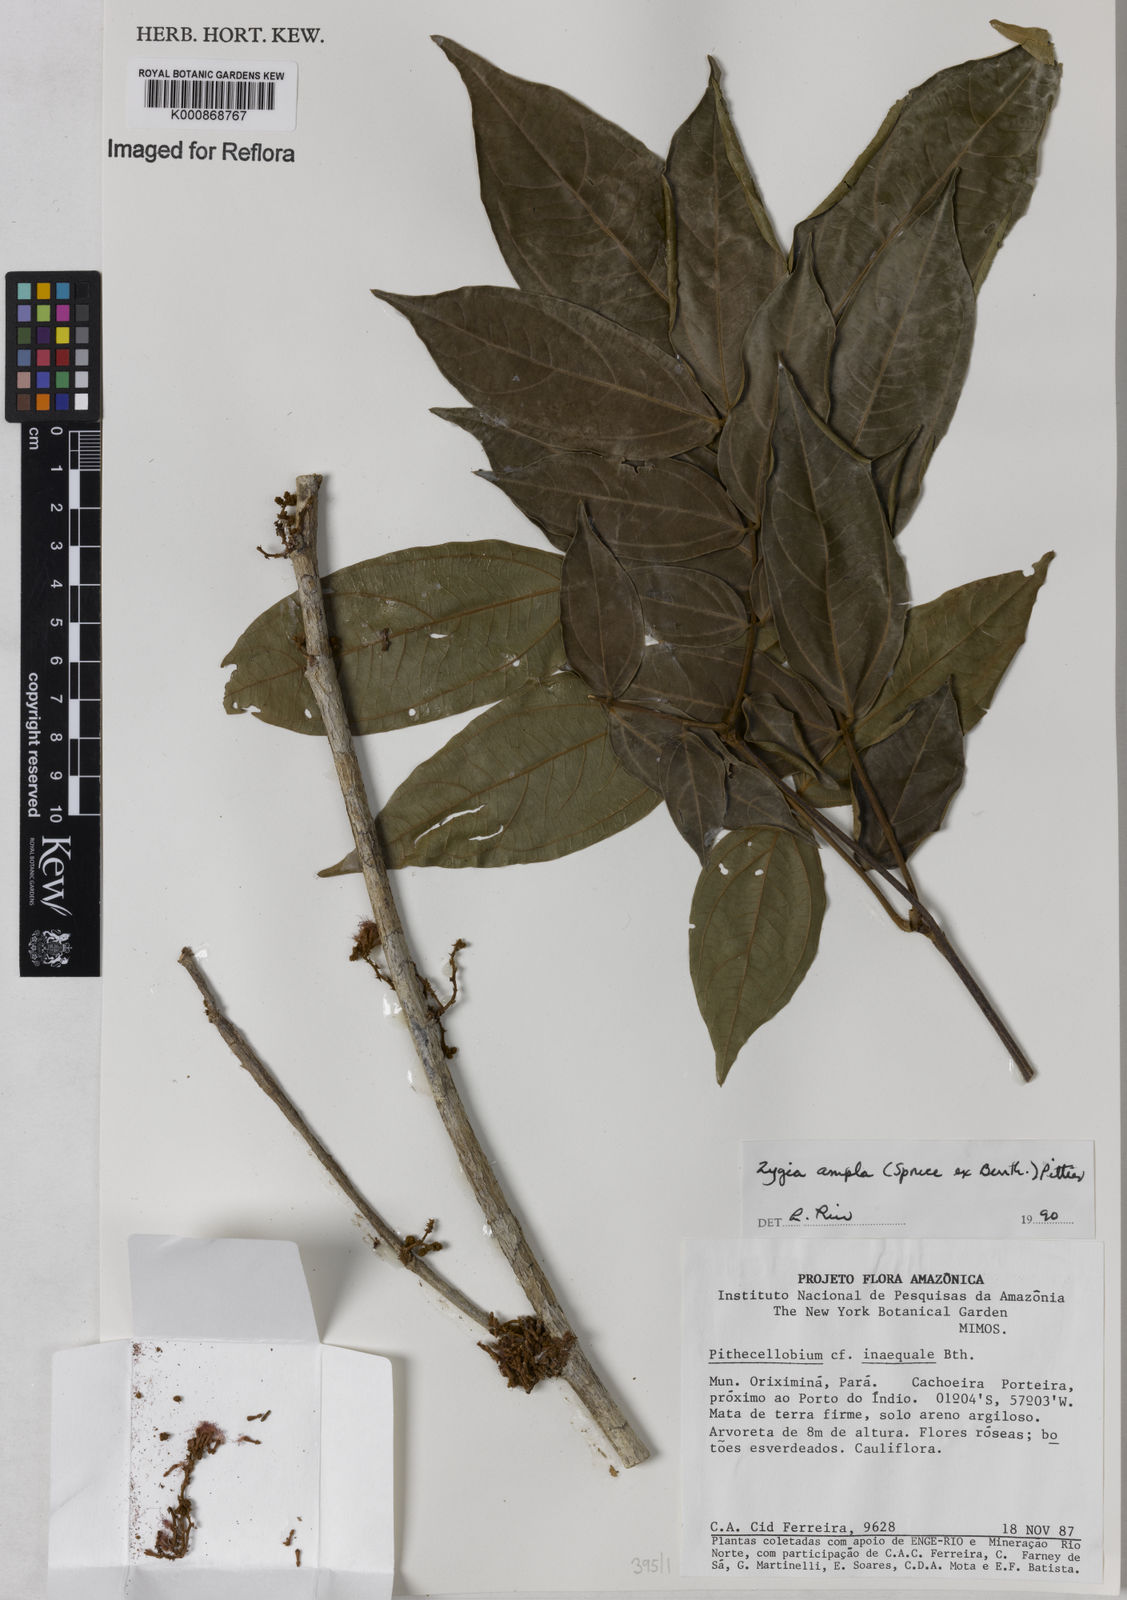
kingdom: Plantae
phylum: Tracheophyta
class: Magnoliopsida
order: Fabales
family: Fabaceae
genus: Zygia
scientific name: Zygia ampla
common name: Jarendeua de sapo
